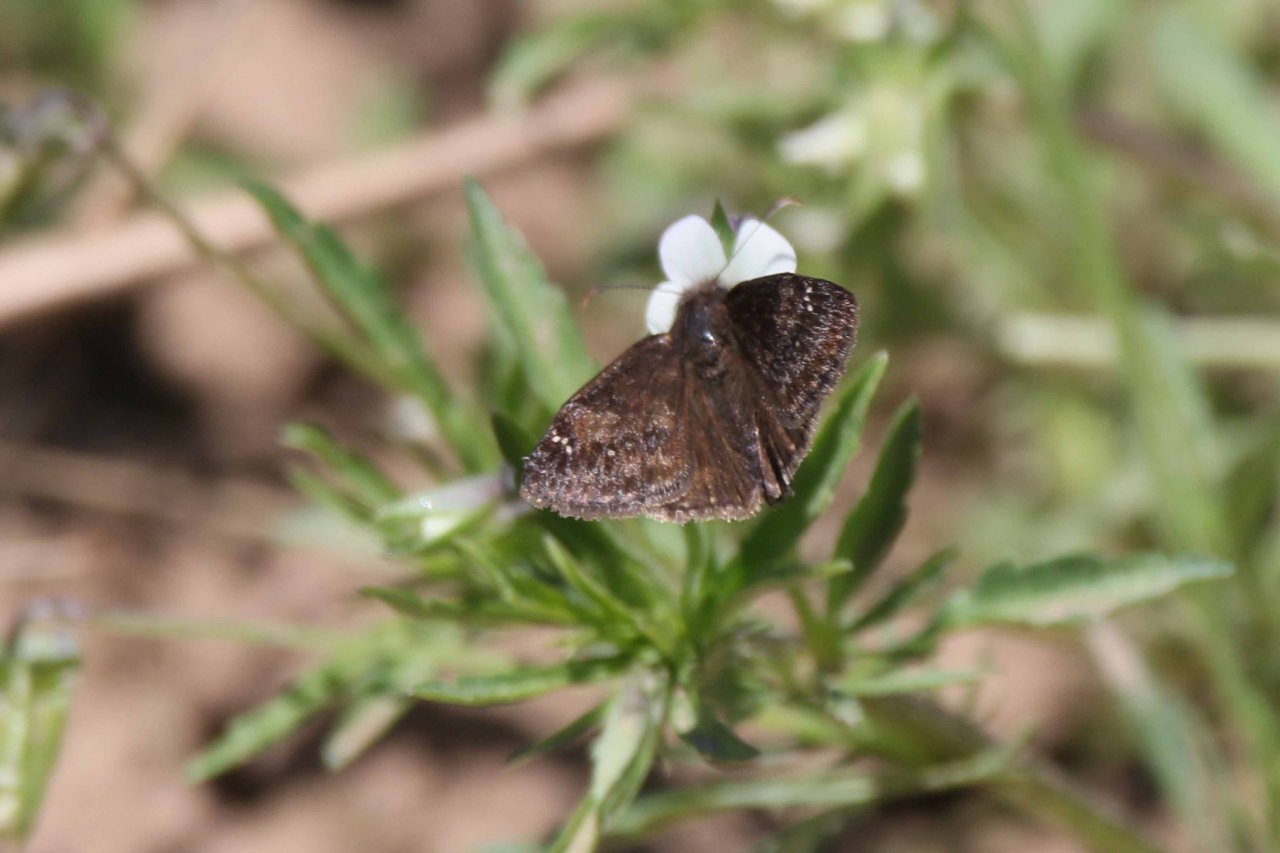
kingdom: Animalia
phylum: Arthropoda
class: Insecta
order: Lepidoptera
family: Hesperiidae
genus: Gesta
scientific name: Gesta
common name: Wild Indigo Duskywing
